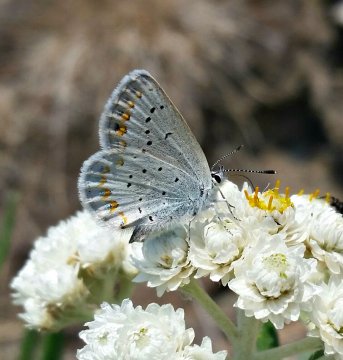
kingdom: Animalia
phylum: Arthropoda
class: Insecta
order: Lepidoptera
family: Lycaenidae
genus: Lycaeides
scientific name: Lycaeides anna
